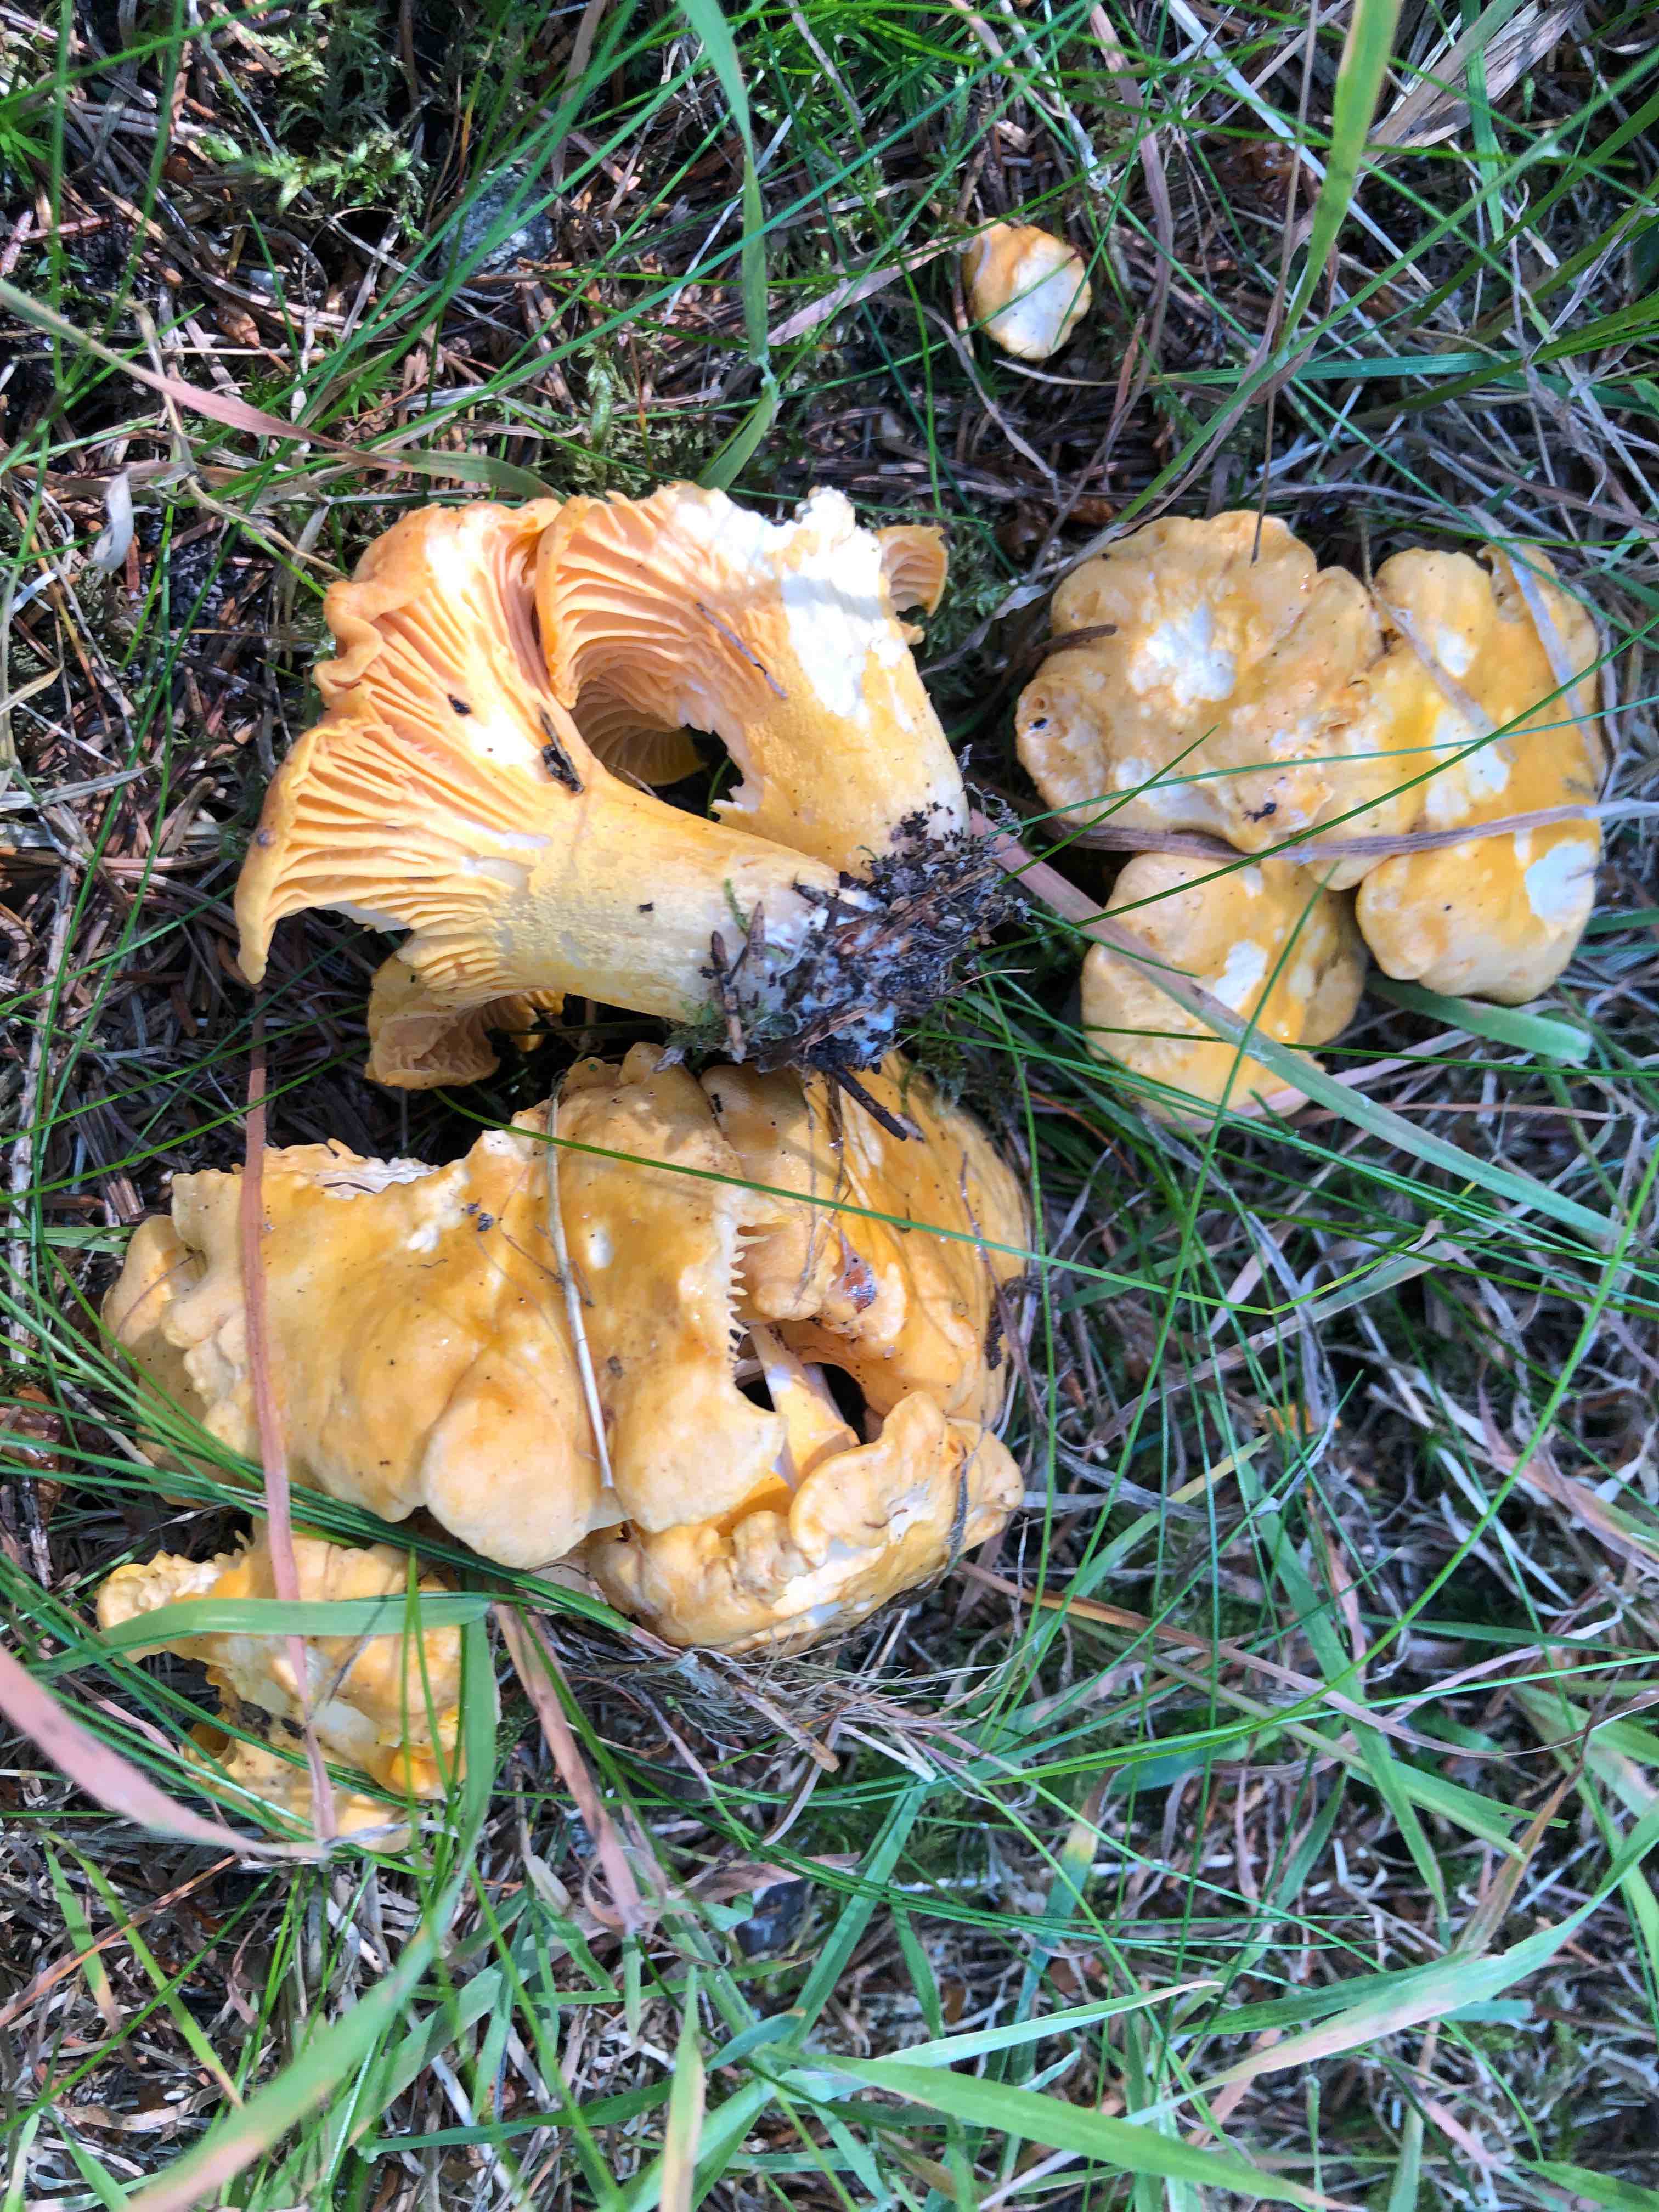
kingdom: Fungi
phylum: Basidiomycota
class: Agaricomycetes
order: Cantharellales
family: Hydnaceae
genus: Cantharellus
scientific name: Cantharellus cibarius
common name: almindelig kantarel
